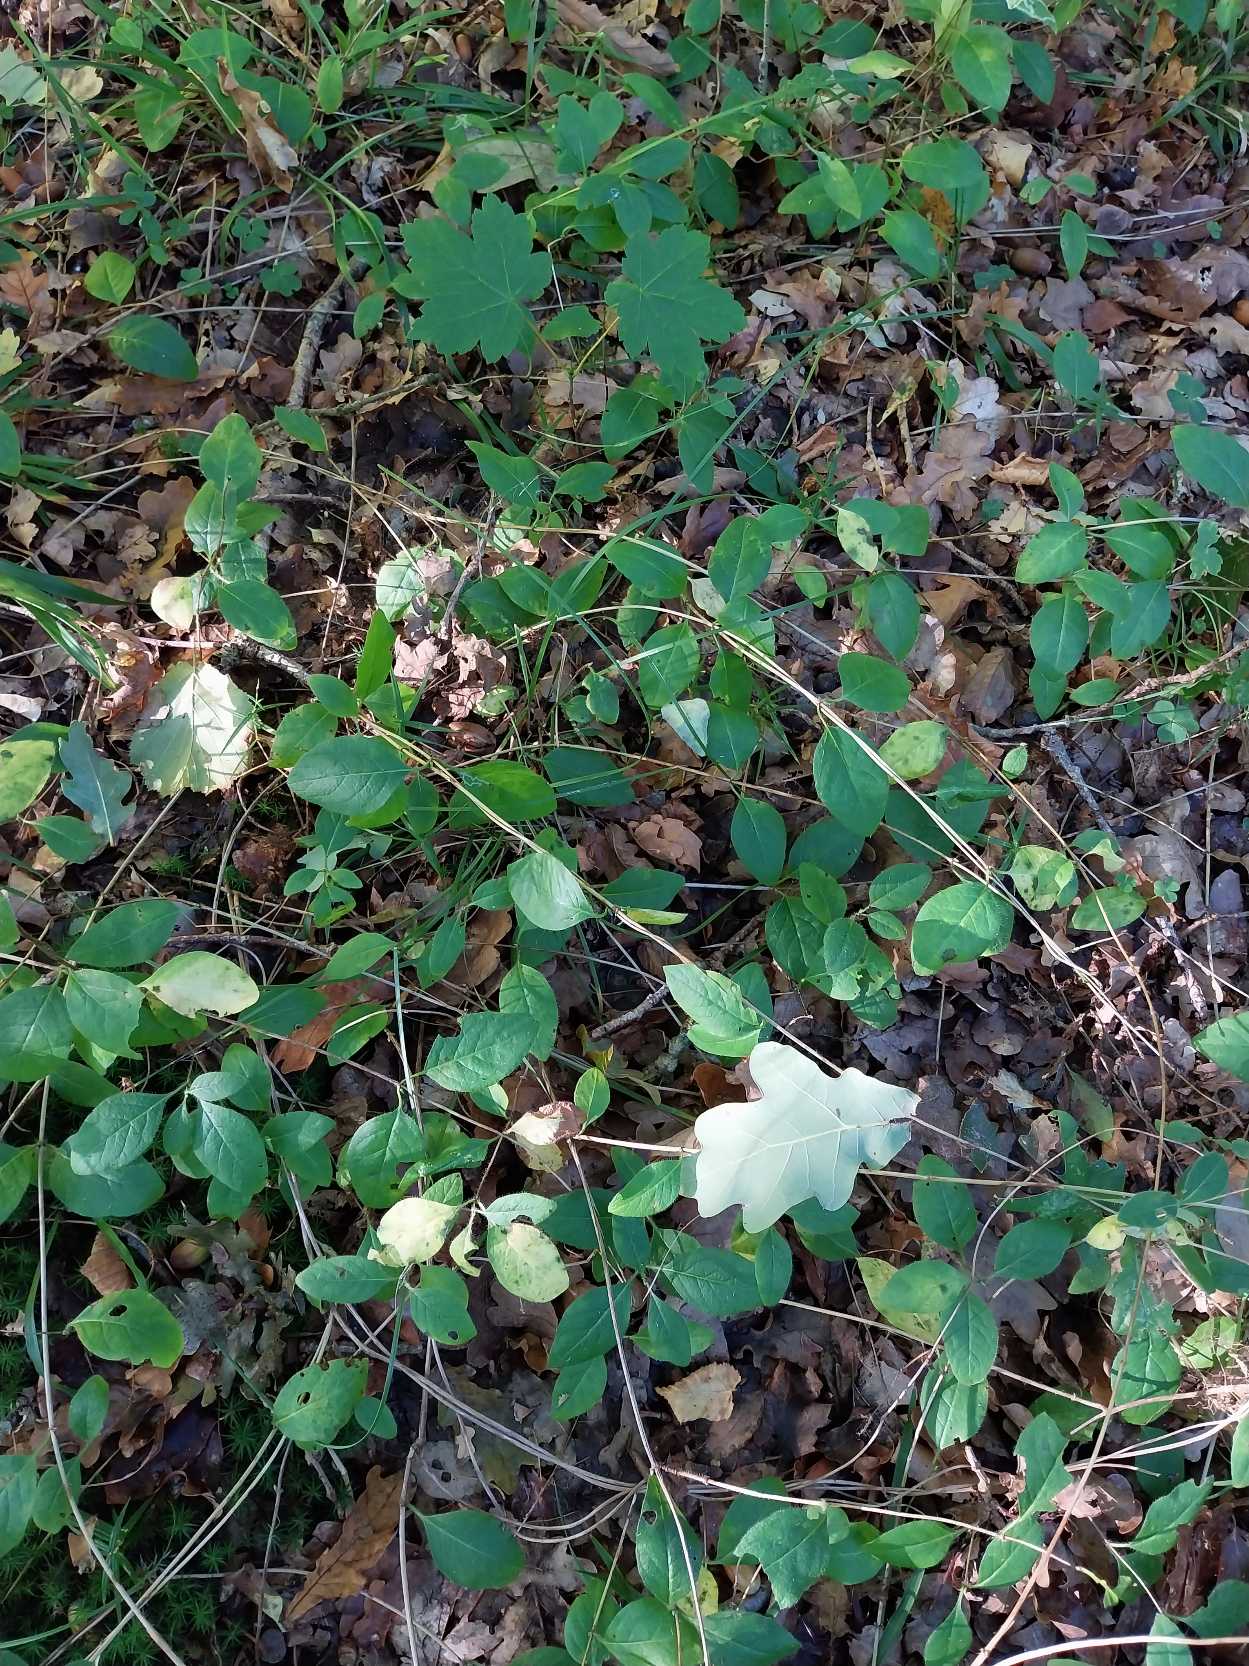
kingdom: Plantae
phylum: Tracheophyta
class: Magnoliopsida
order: Dipsacales
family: Caprifoliaceae
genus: Lonicera
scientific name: Lonicera periclymenum
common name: Almindelig gedeblad
